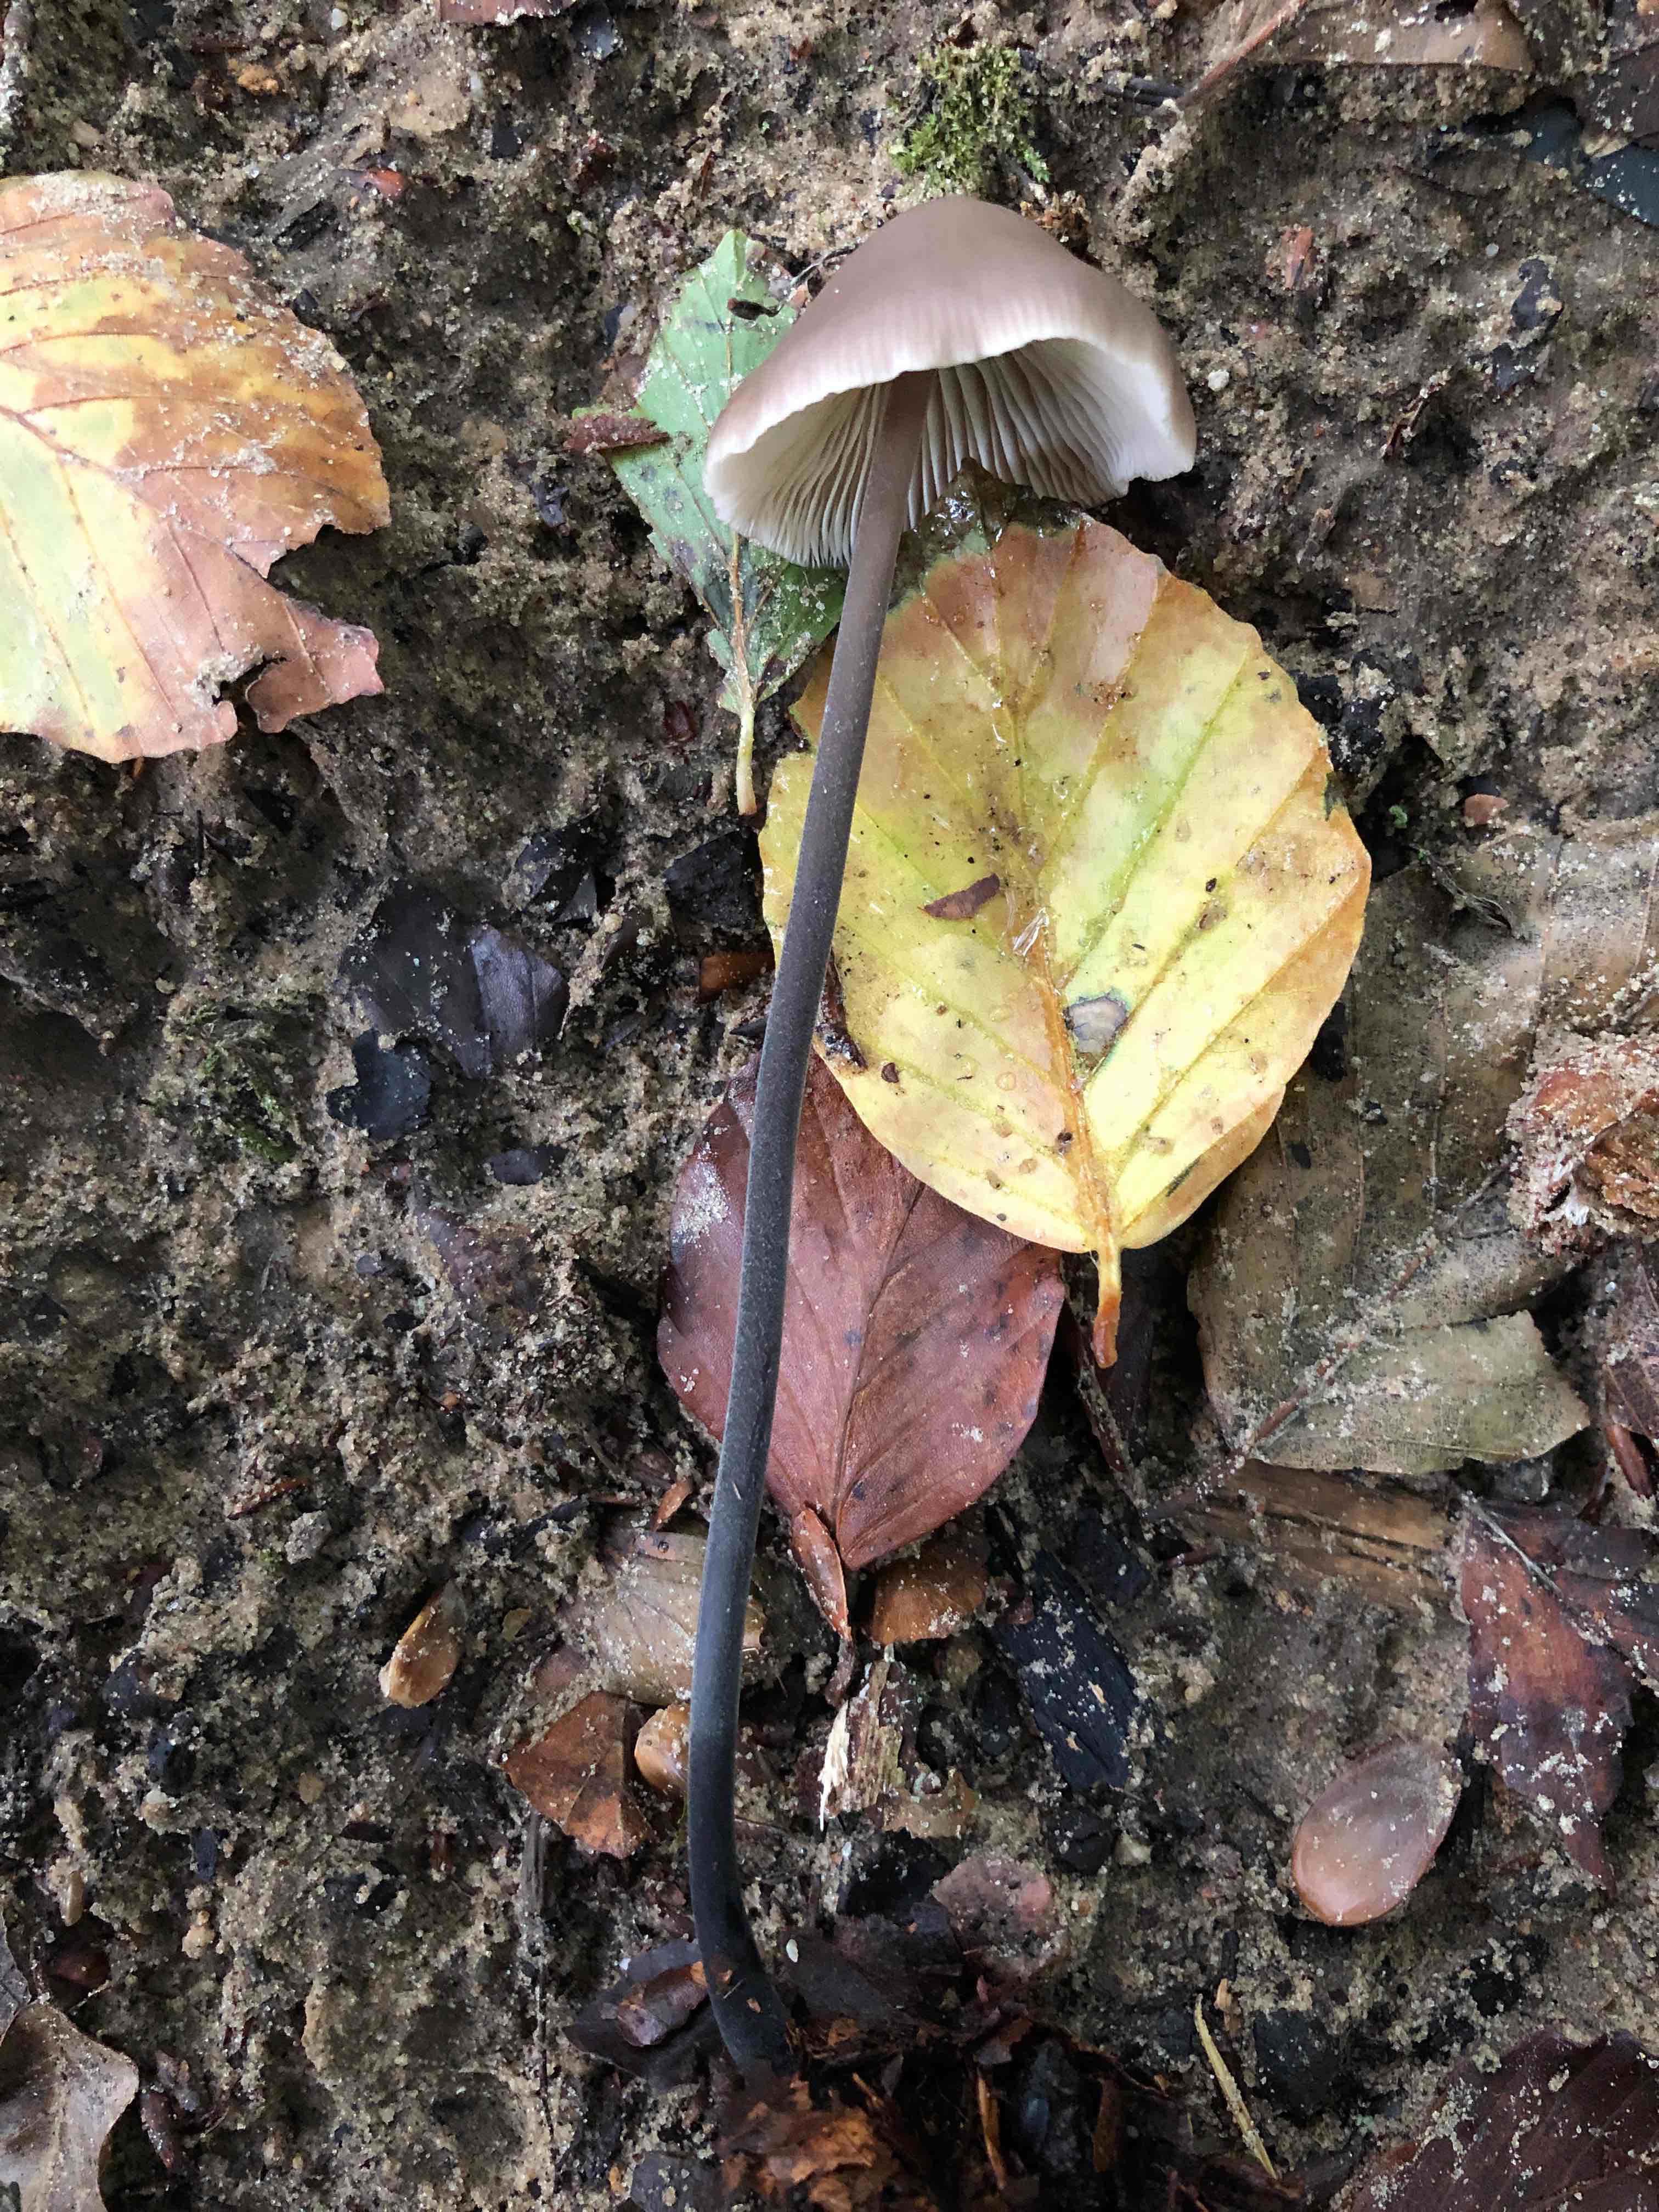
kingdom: Fungi
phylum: Basidiomycota
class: Agaricomycetes
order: Agaricales
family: Omphalotaceae
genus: Mycetinis
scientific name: Mycetinis alliaceus
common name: stor løghat
